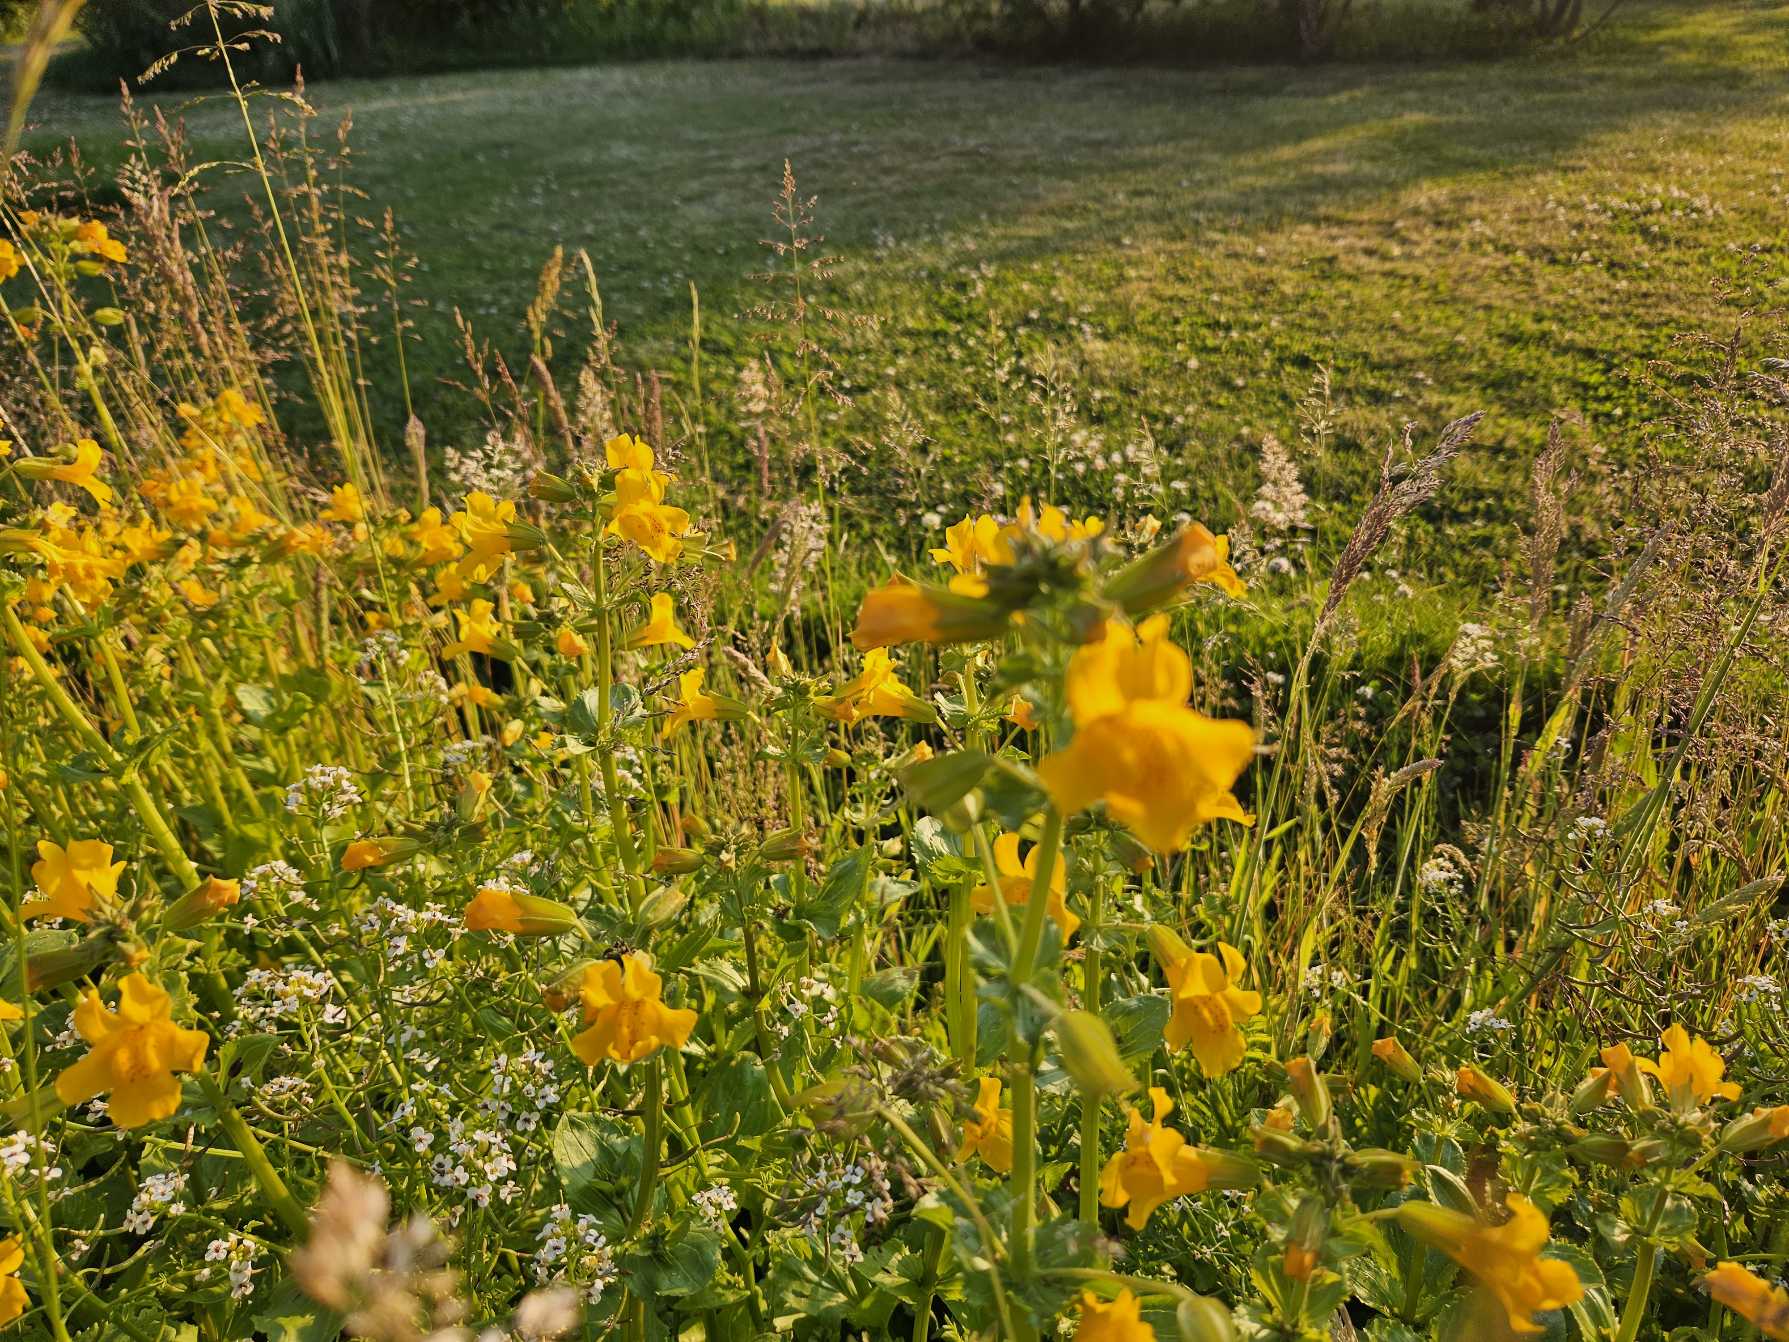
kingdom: Plantae
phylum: Tracheophyta
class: Magnoliopsida
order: Lamiales
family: Phrymaceae
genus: Erythranthe
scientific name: Erythranthe guttata
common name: Abeblomst
